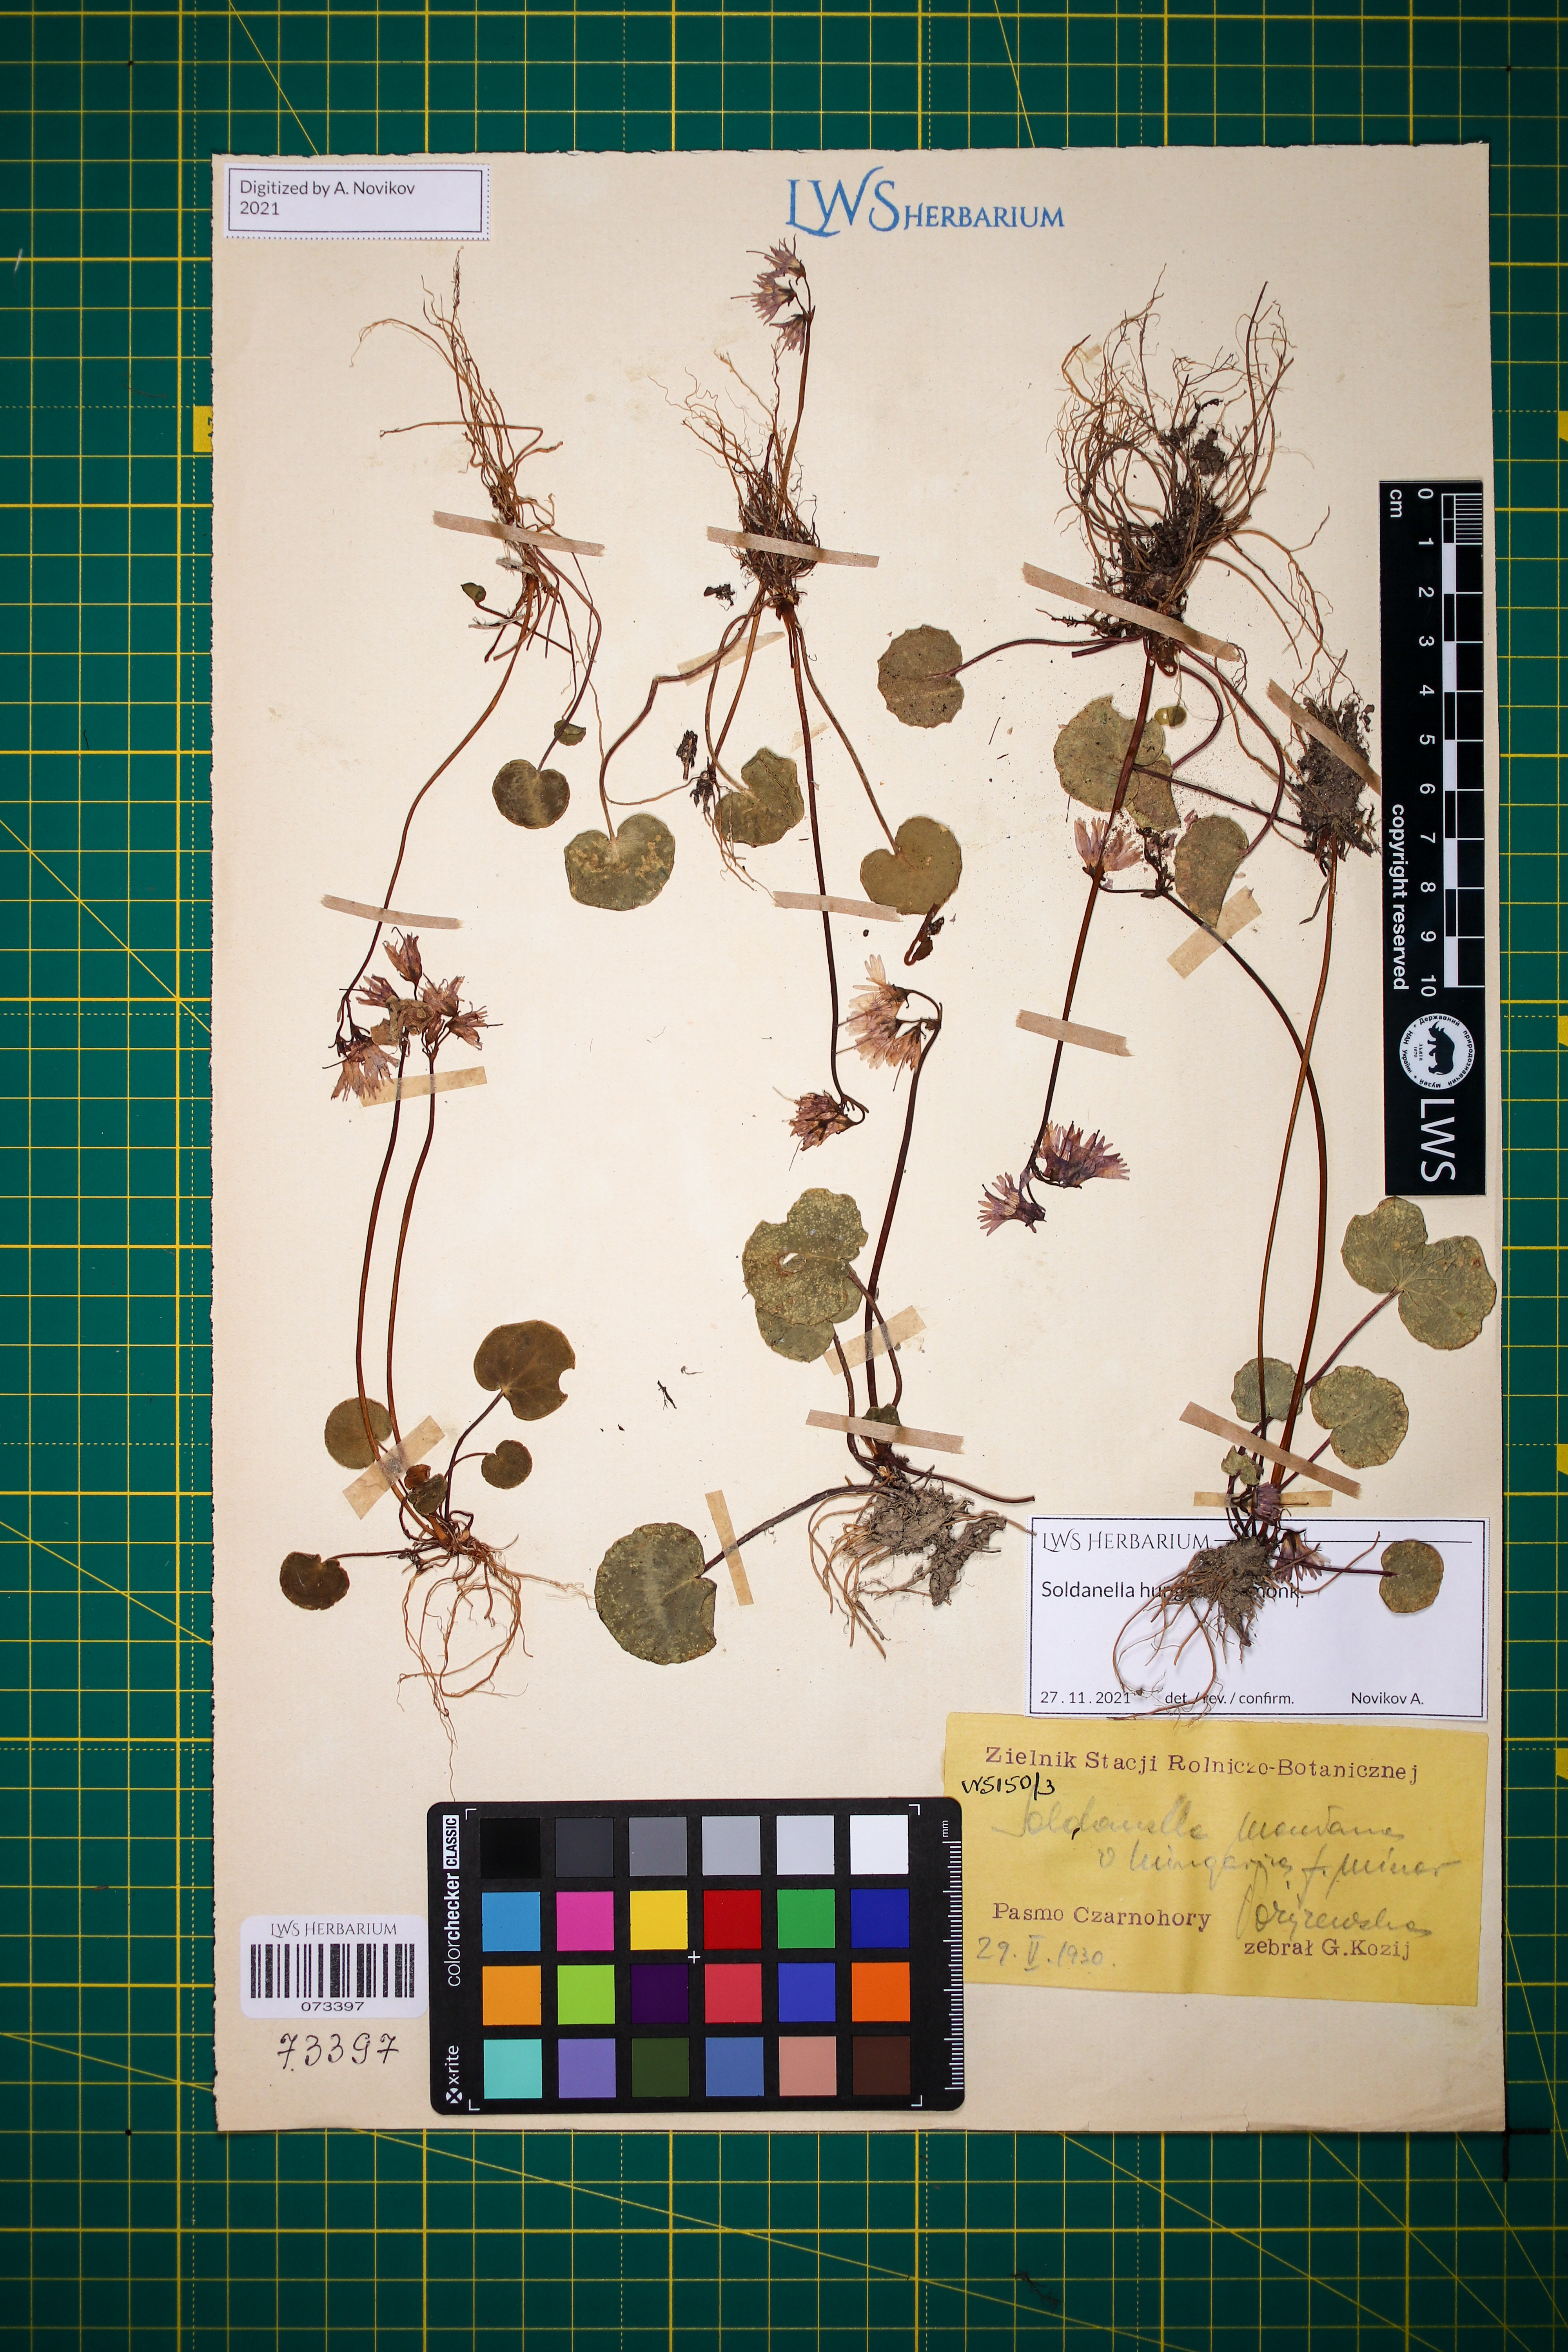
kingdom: Plantae
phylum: Tracheophyta
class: Magnoliopsida
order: Ericales
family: Primulaceae
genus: Soldanella
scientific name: Soldanella hungarica
